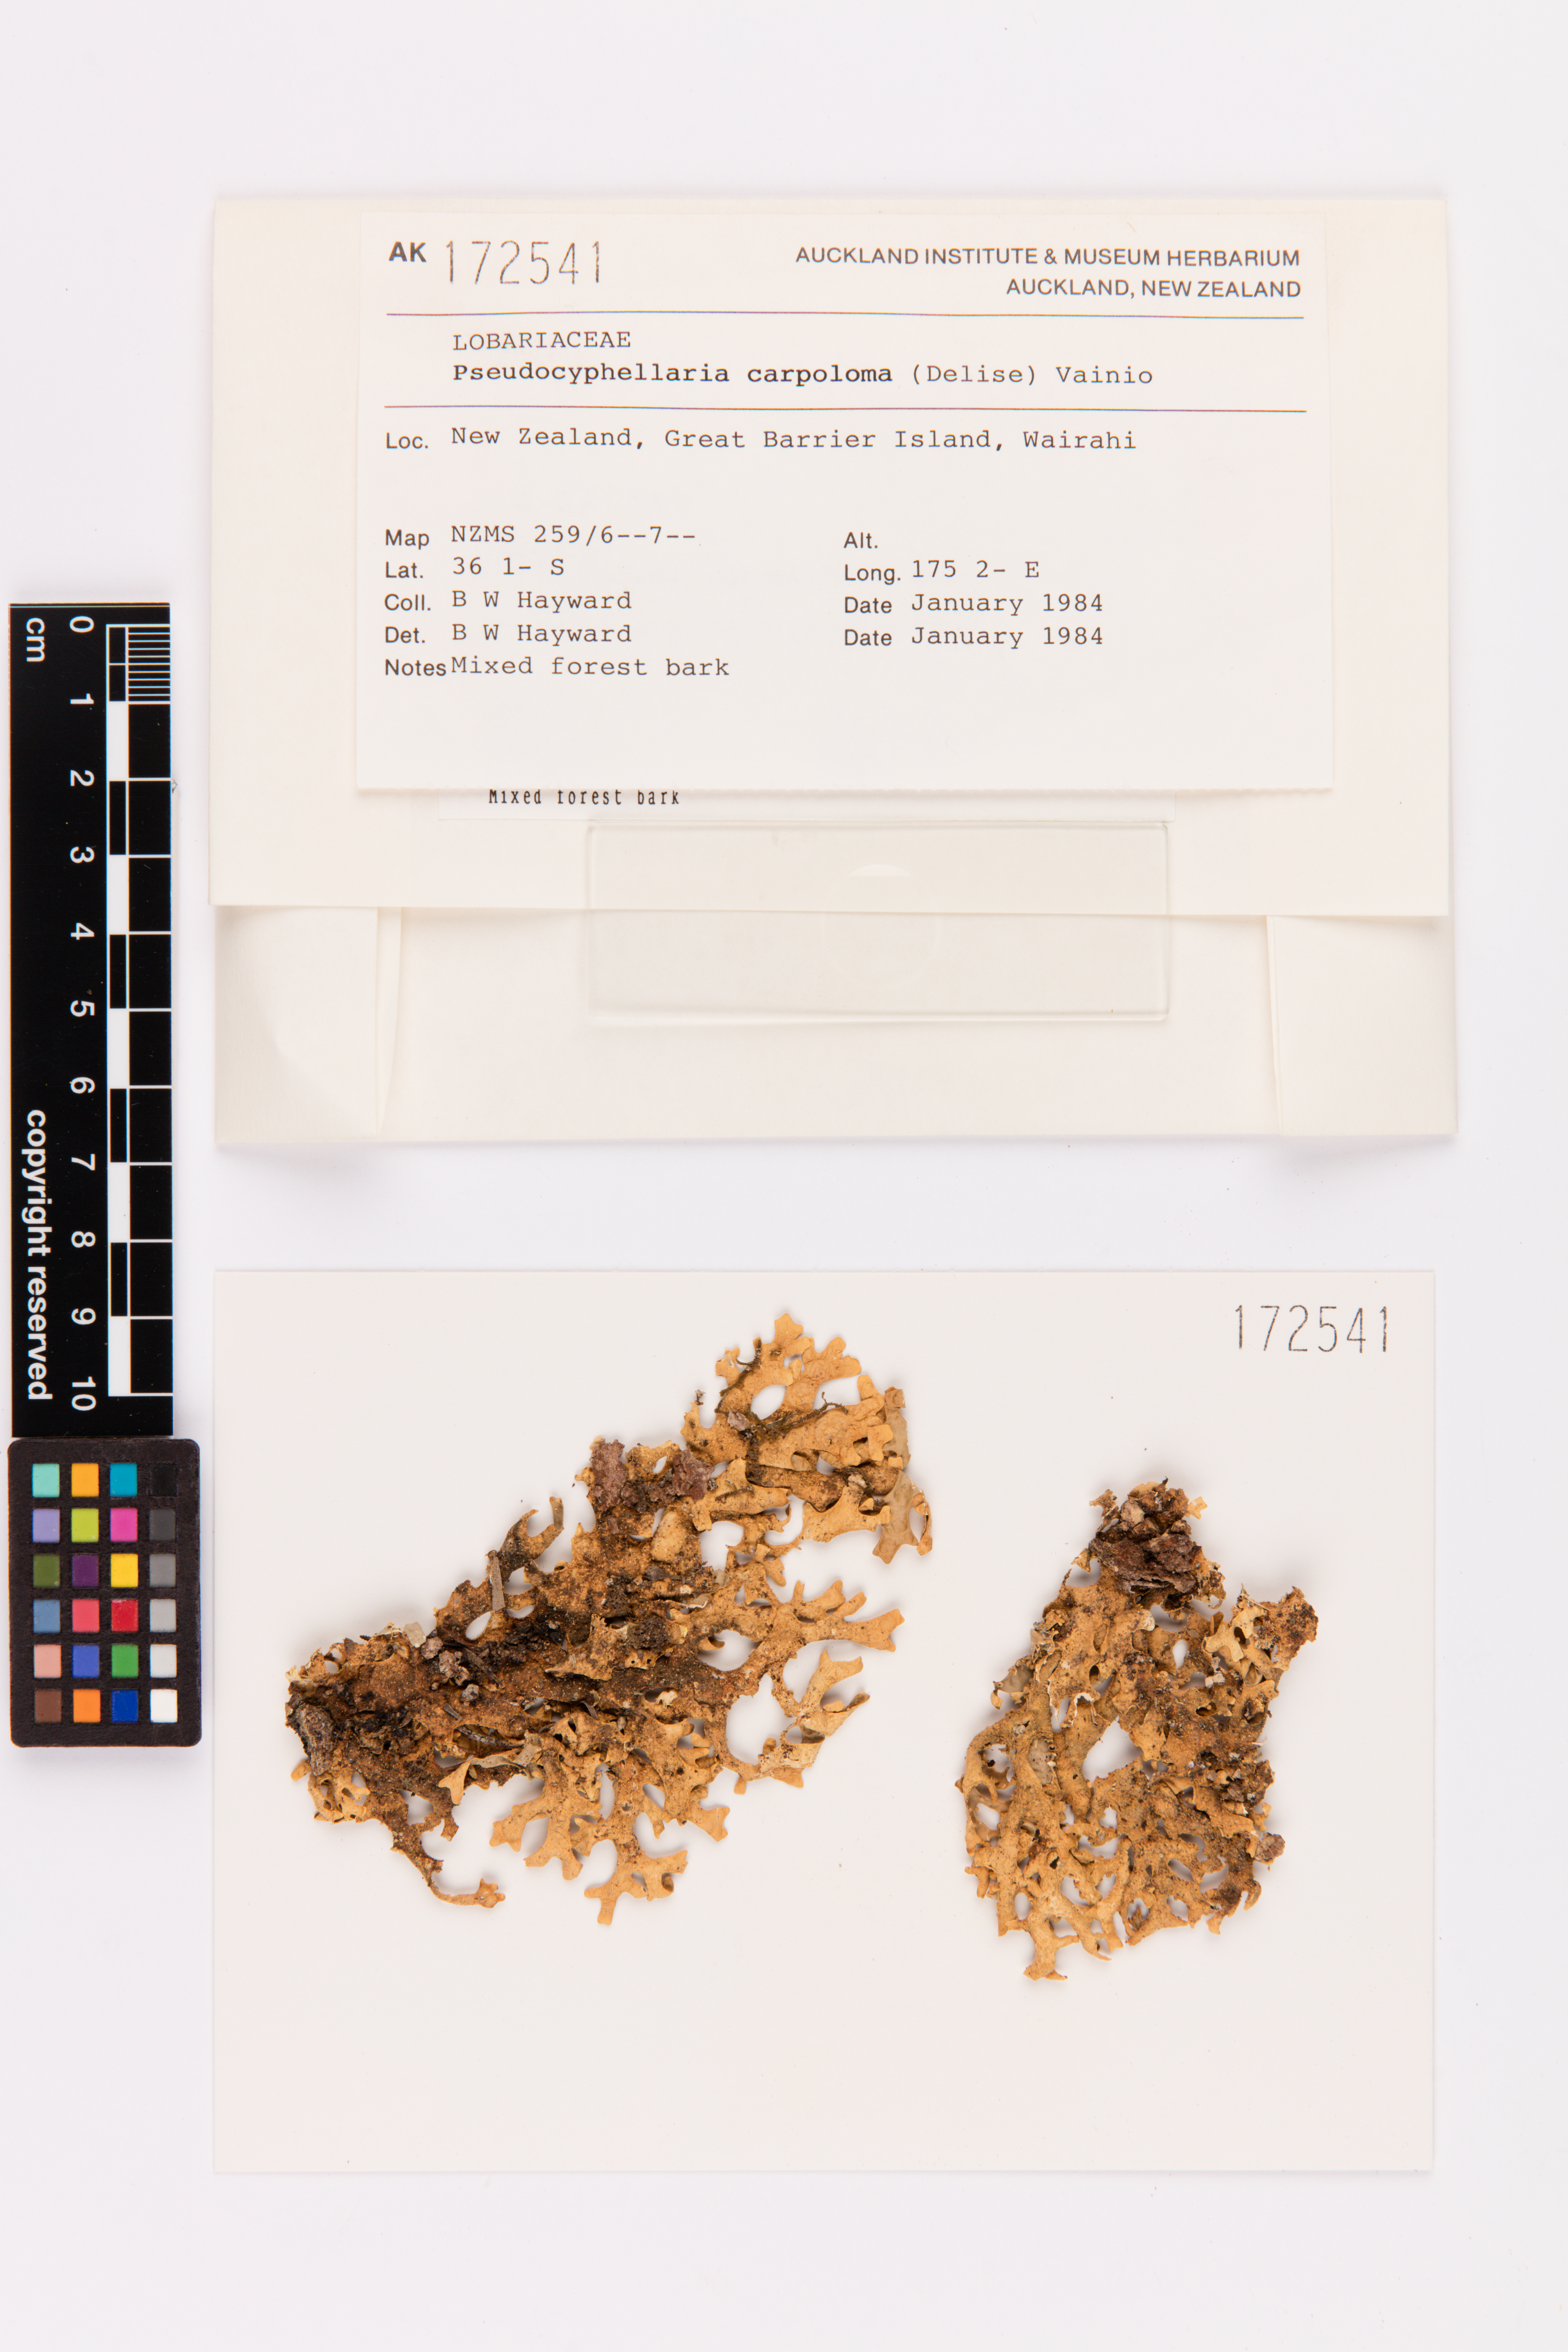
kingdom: Fungi
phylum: Ascomycota
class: Lecanoromycetes
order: Peltigerales
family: Lobariaceae
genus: Pseudocyphellaria
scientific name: Pseudocyphellaria carpoloma
